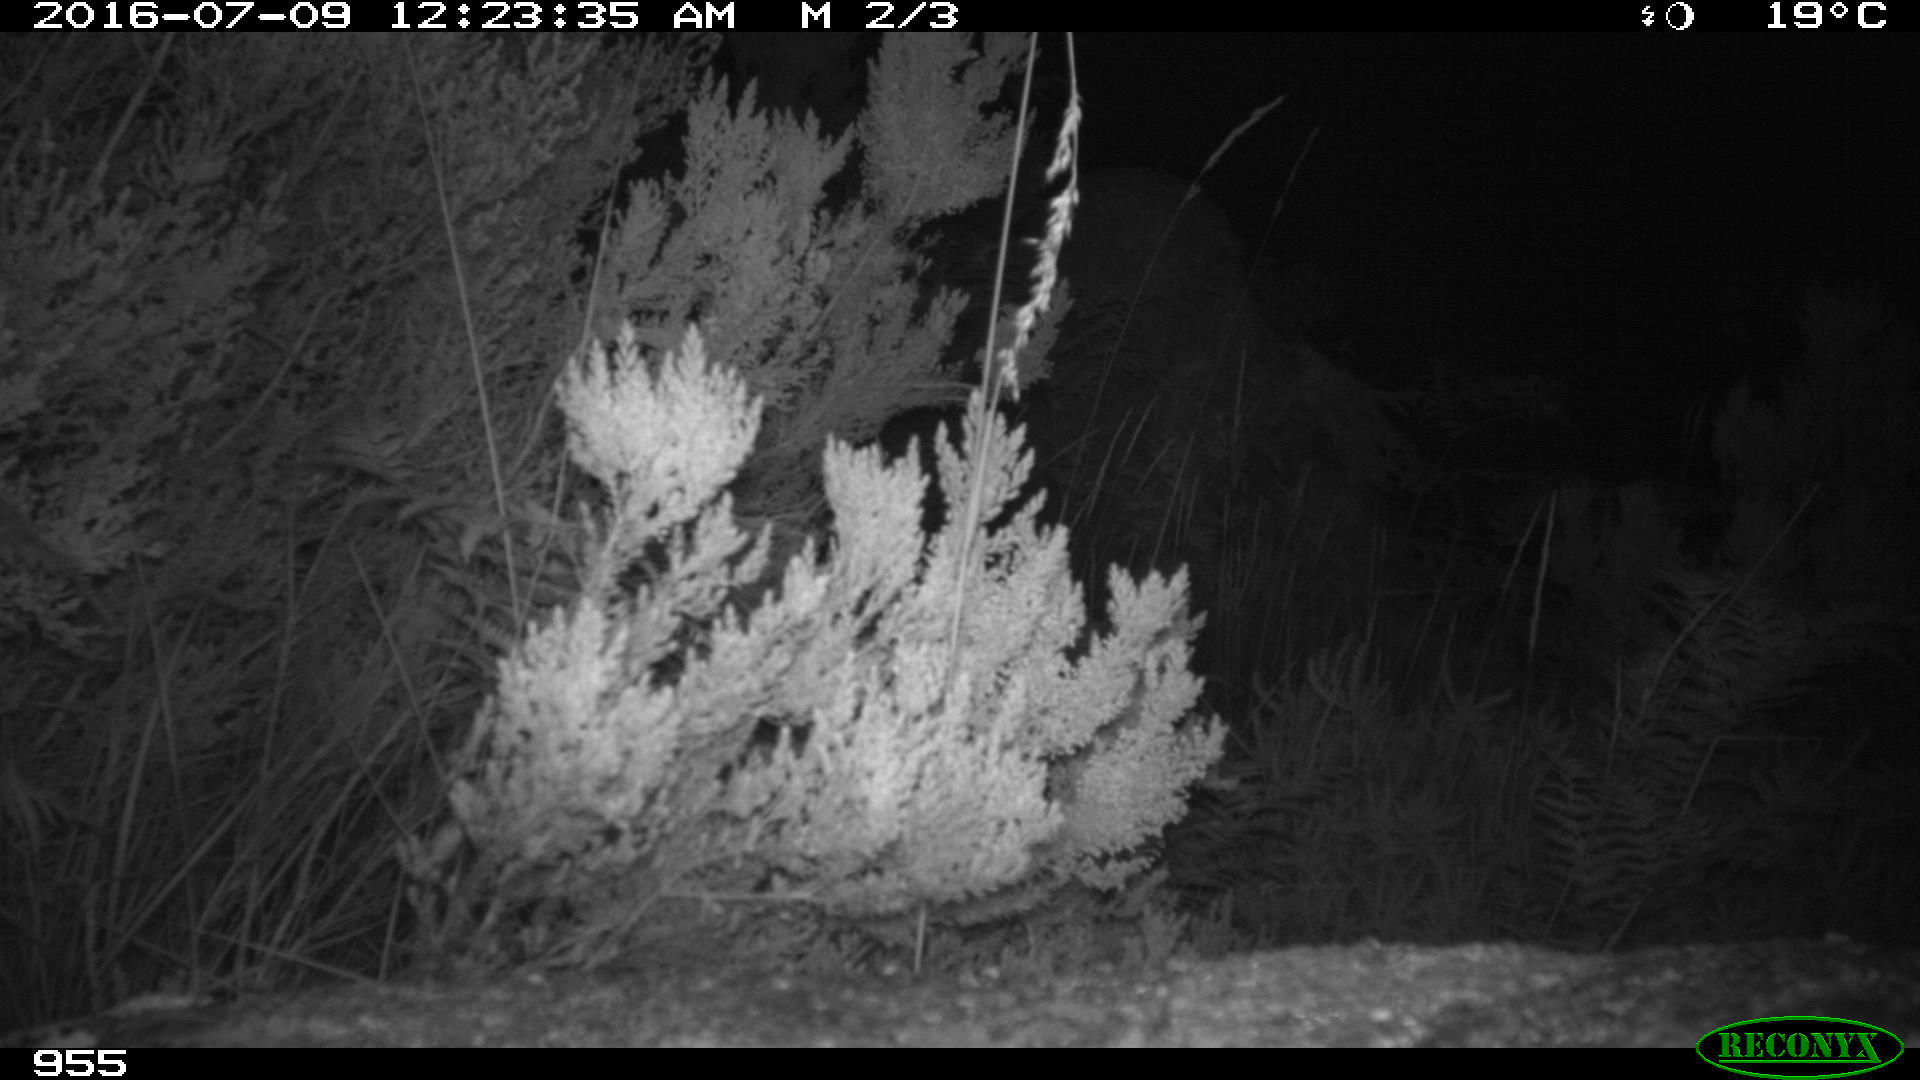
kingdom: Animalia
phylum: Chordata
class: Mammalia
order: Rodentia
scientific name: Rodentia
